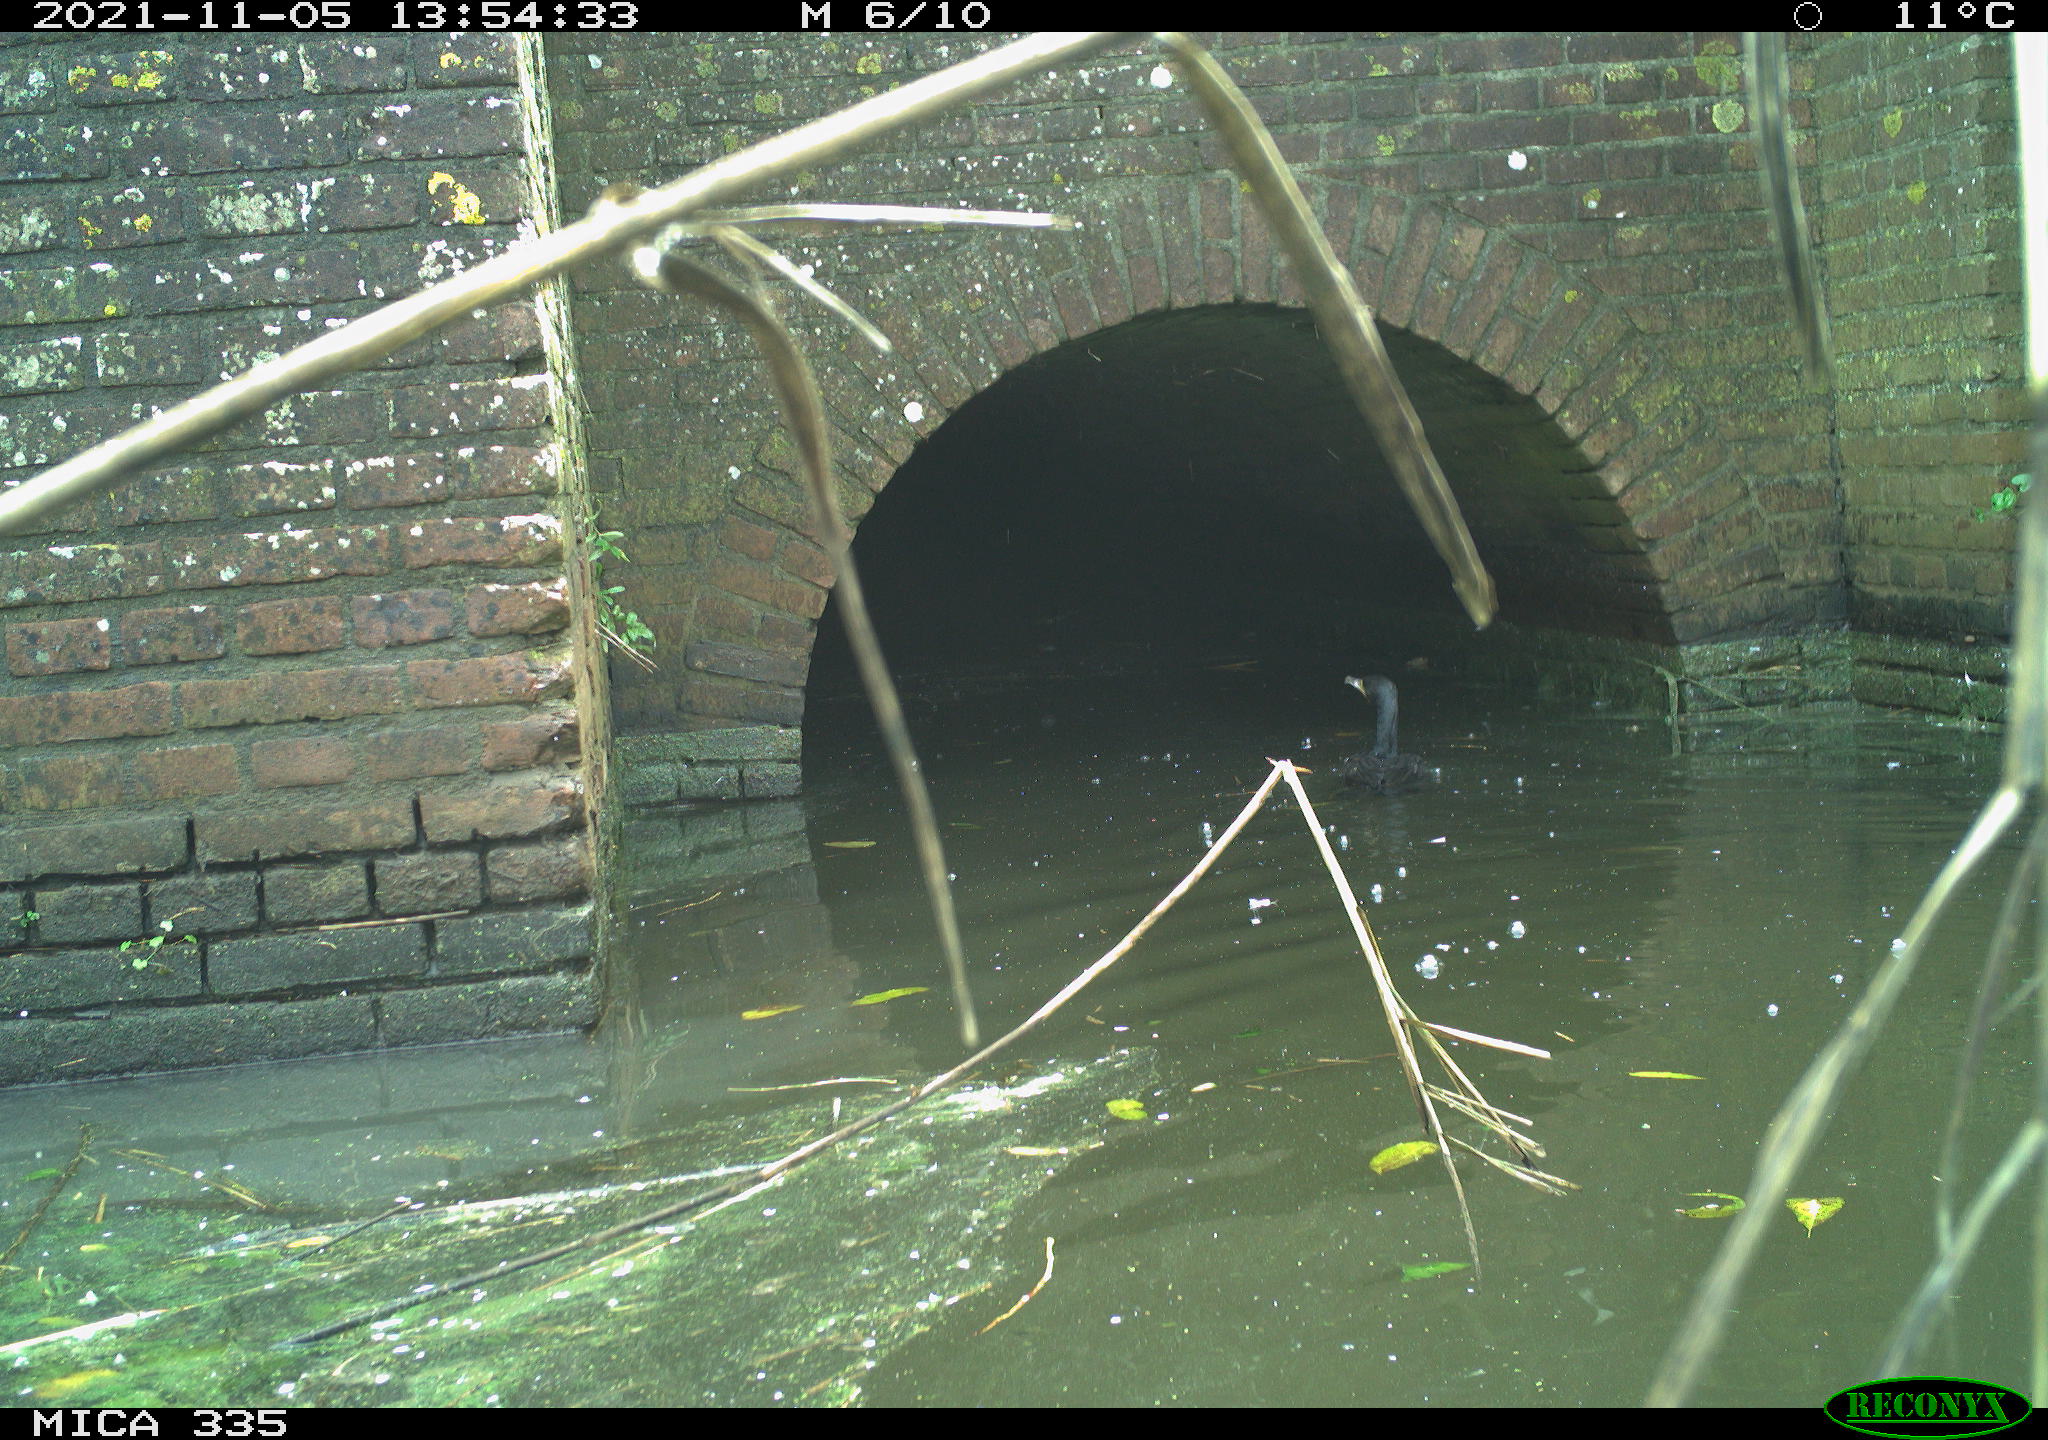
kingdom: Animalia
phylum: Chordata
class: Aves
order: Suliformes
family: Phalacrocoracidae
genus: Phalacrocorax
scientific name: Phalacrocorax carbo
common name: Great cormorant
